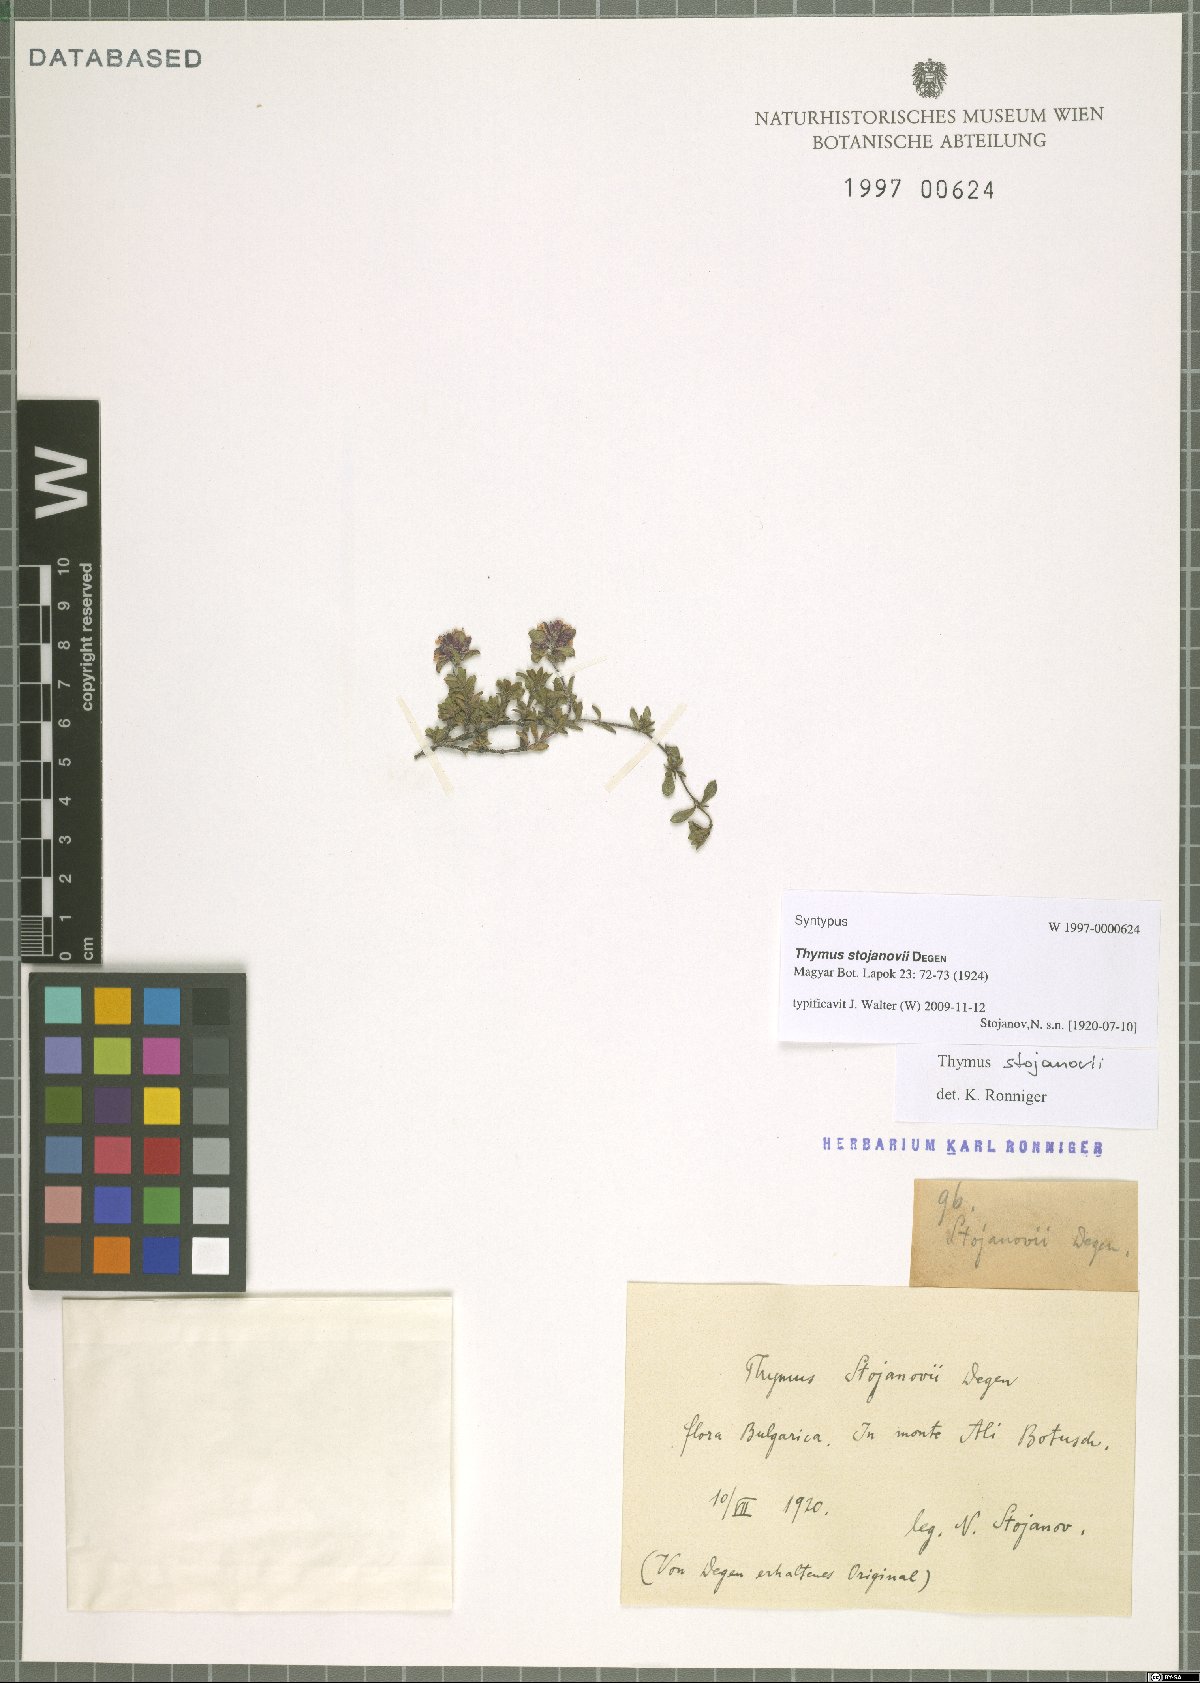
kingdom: Plantae
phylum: Tracheophyta
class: Magnoliopsida
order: Lamiales
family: Lamiaceae
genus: Thymus
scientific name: Thymus stojanovii
